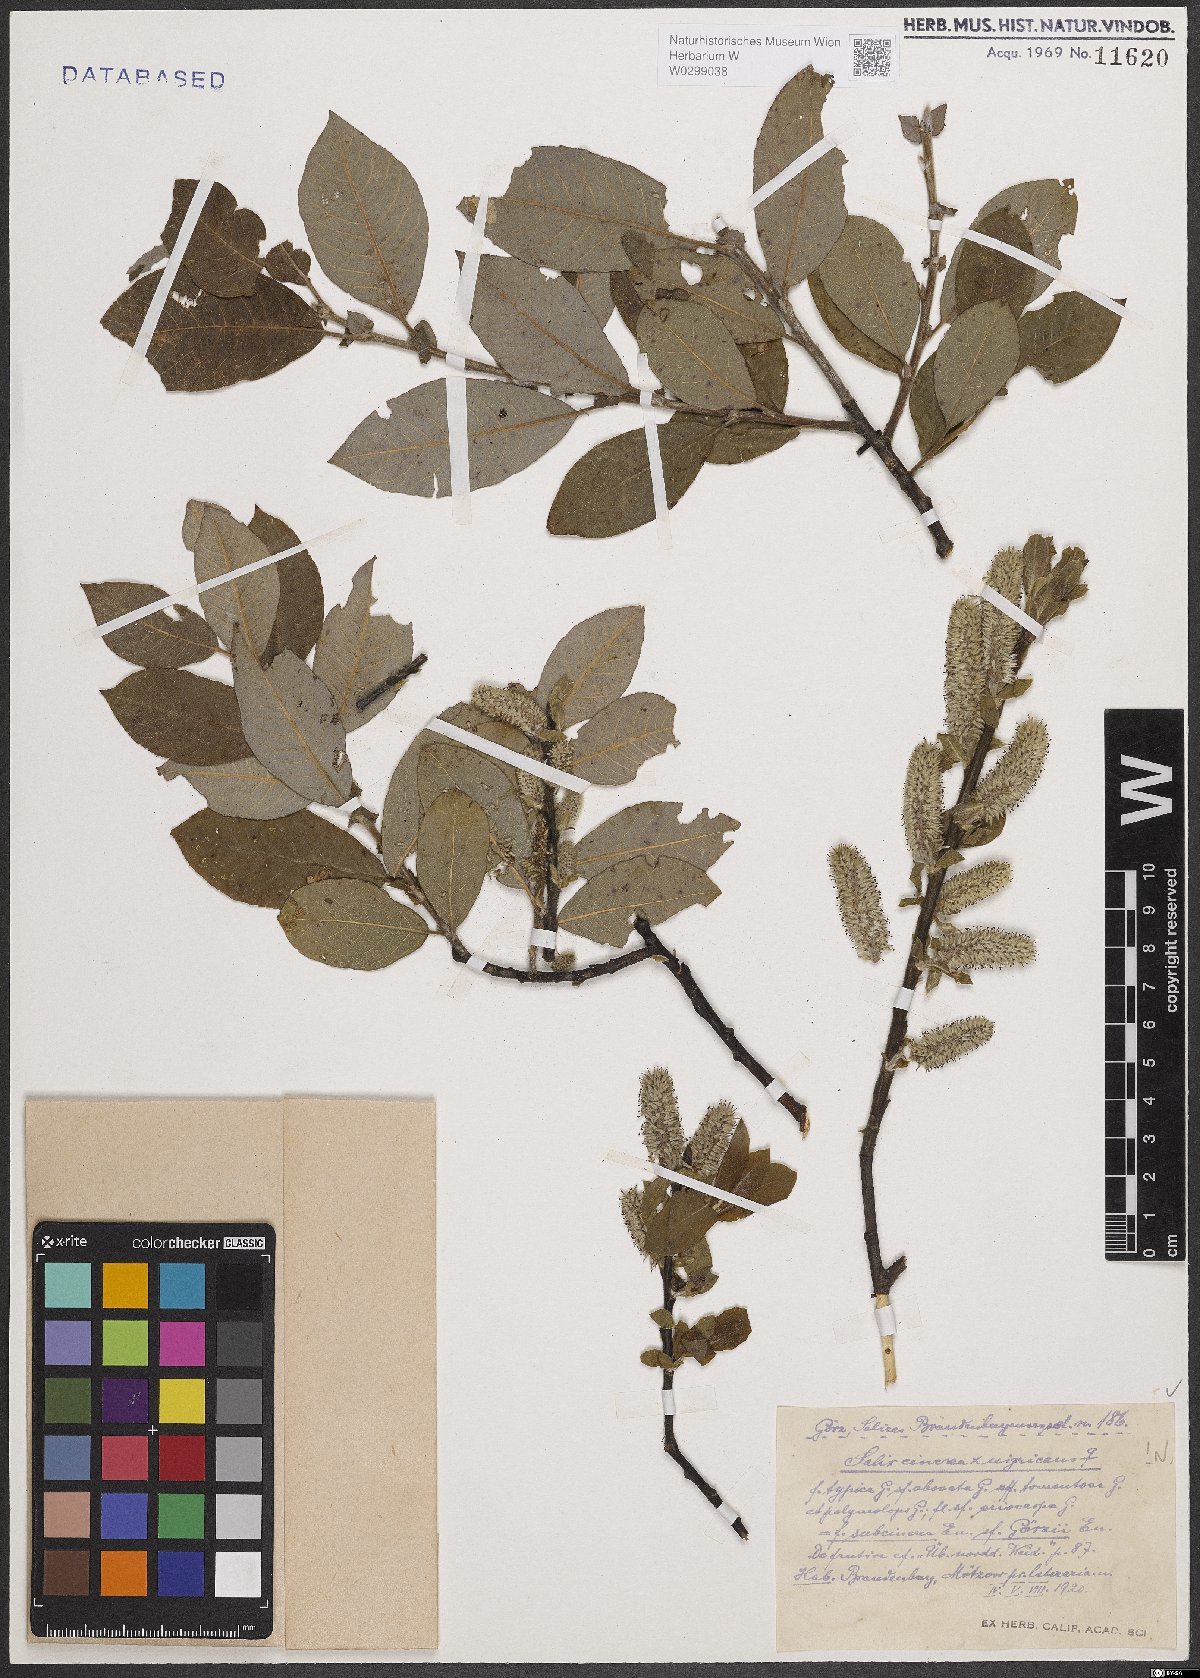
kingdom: Plantae
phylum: Tracheophyta
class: Magnoliopsida
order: Malpighiales
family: Salicaceae
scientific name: Salicaceae
